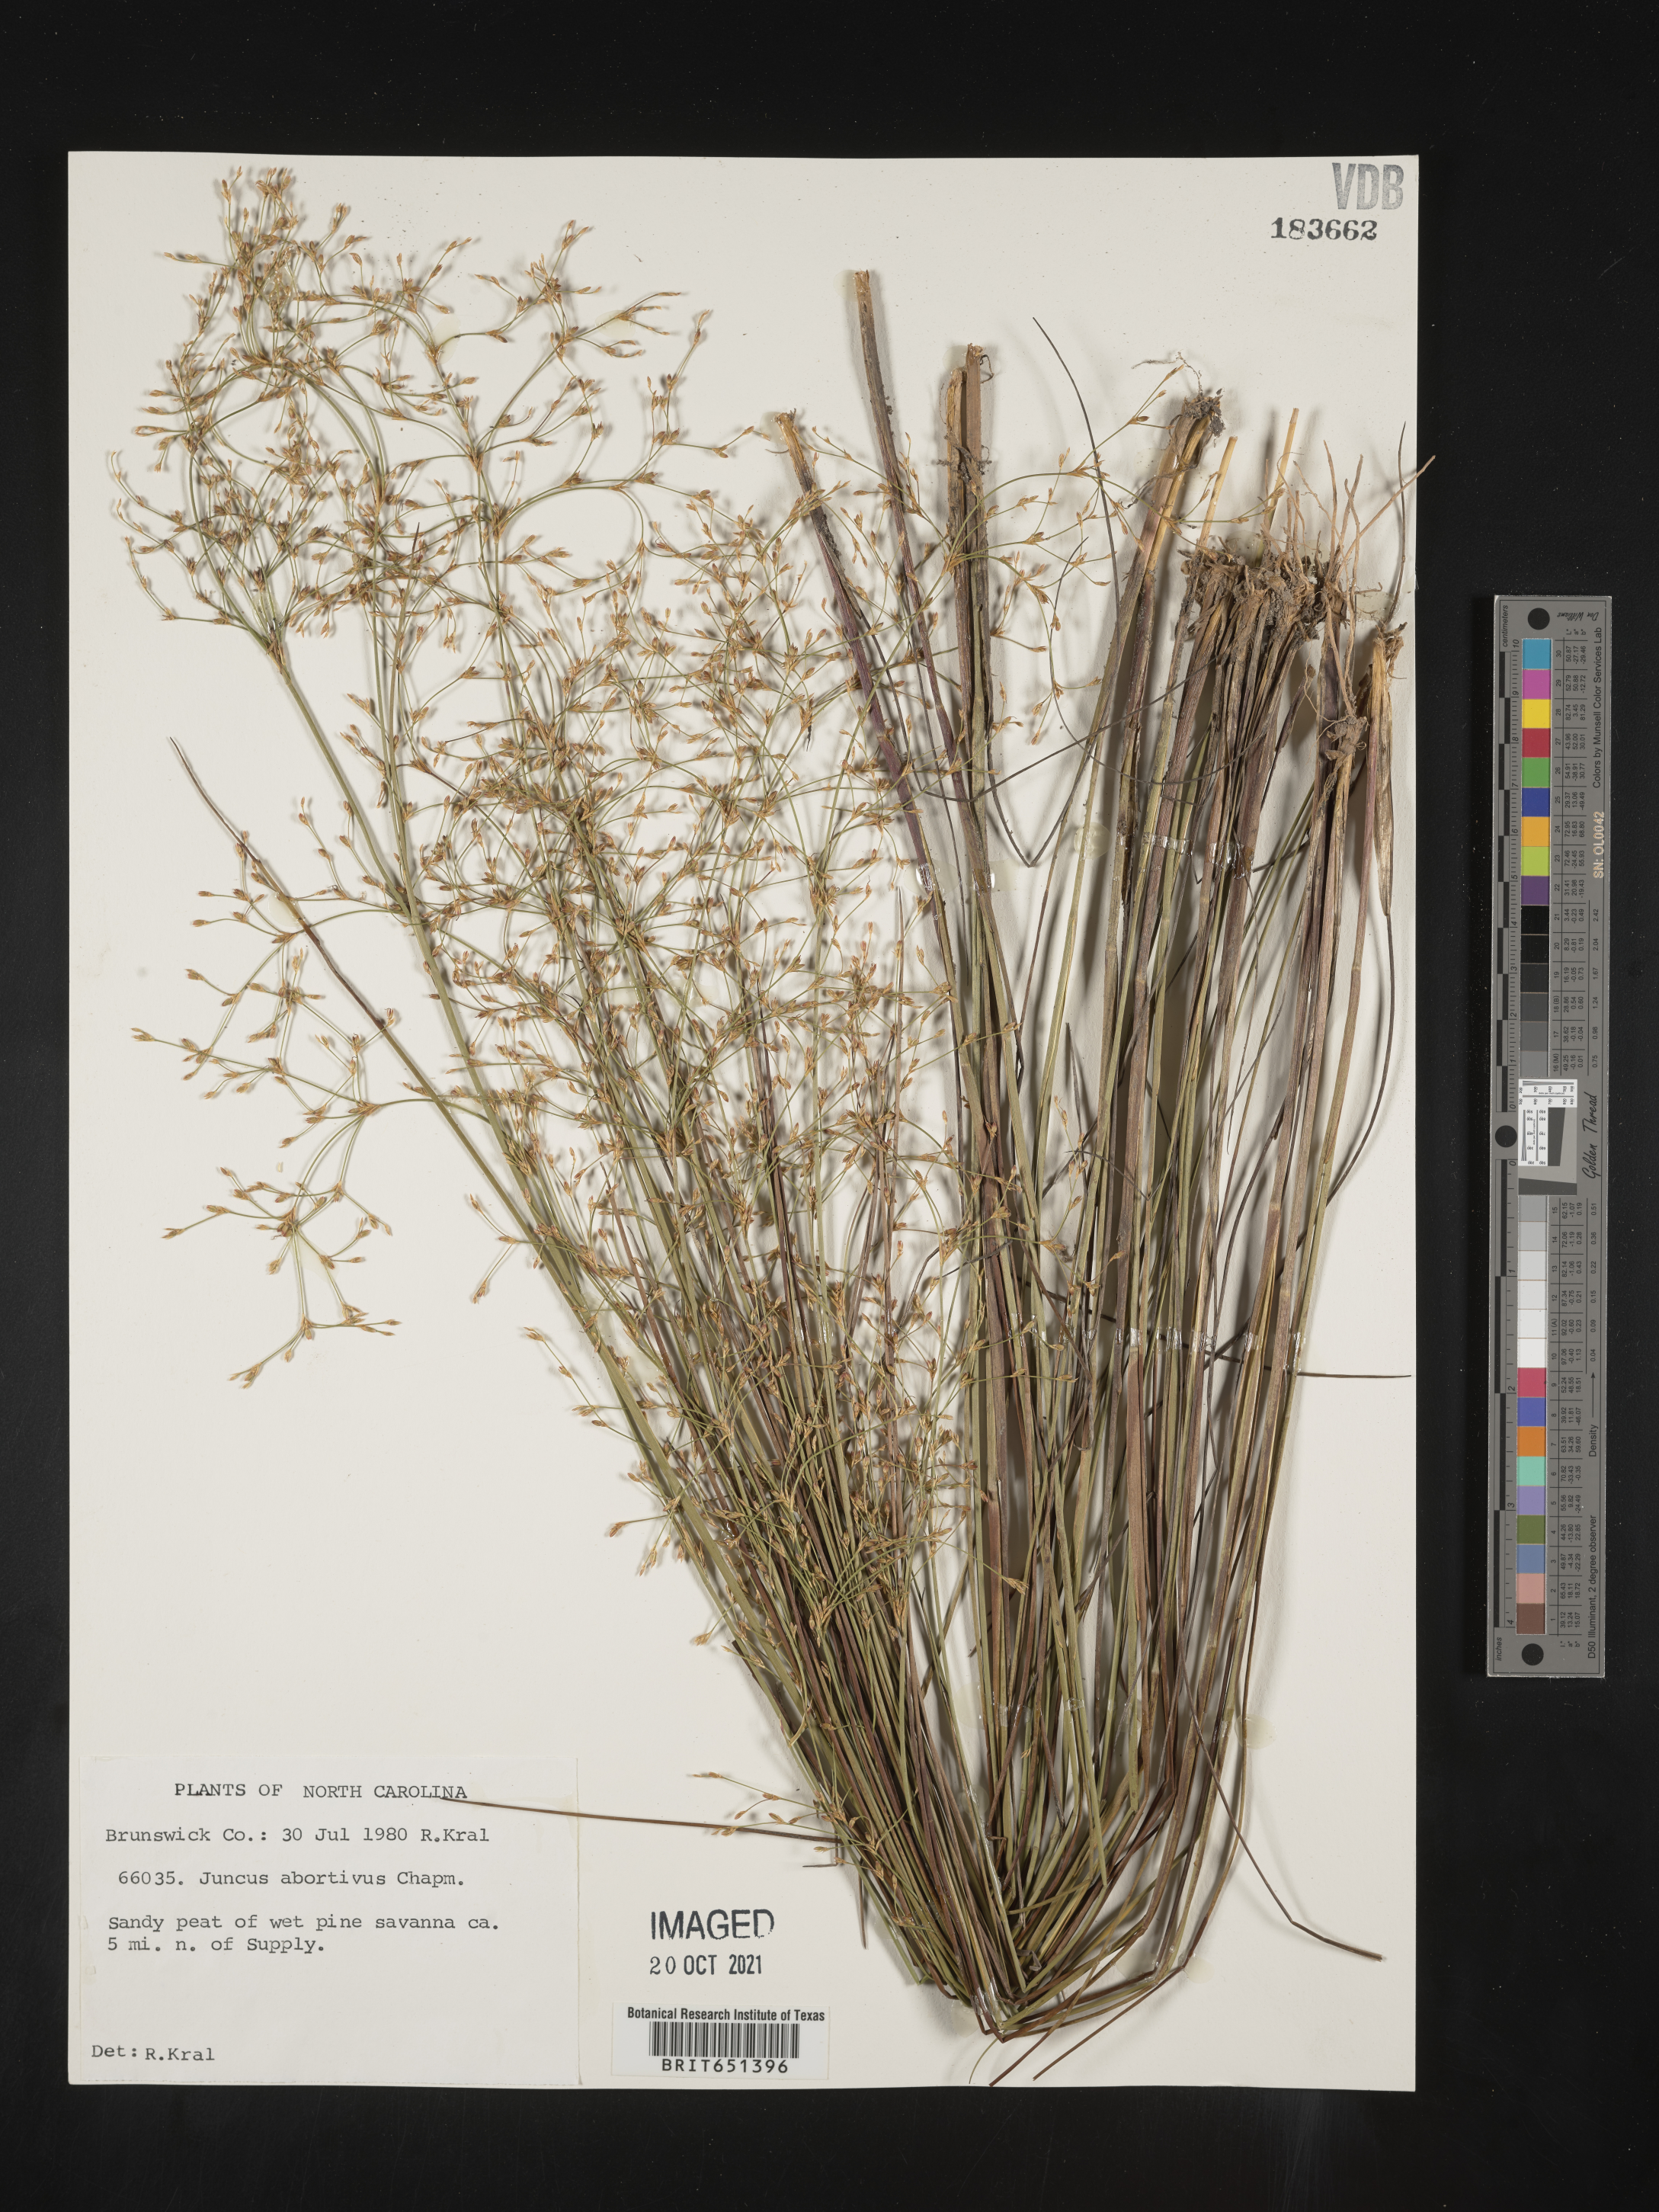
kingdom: Plantae
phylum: Tracheophyta
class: Liliopsida
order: Poales
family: Juncaceae
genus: Juncus
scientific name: Juncus abortivus
